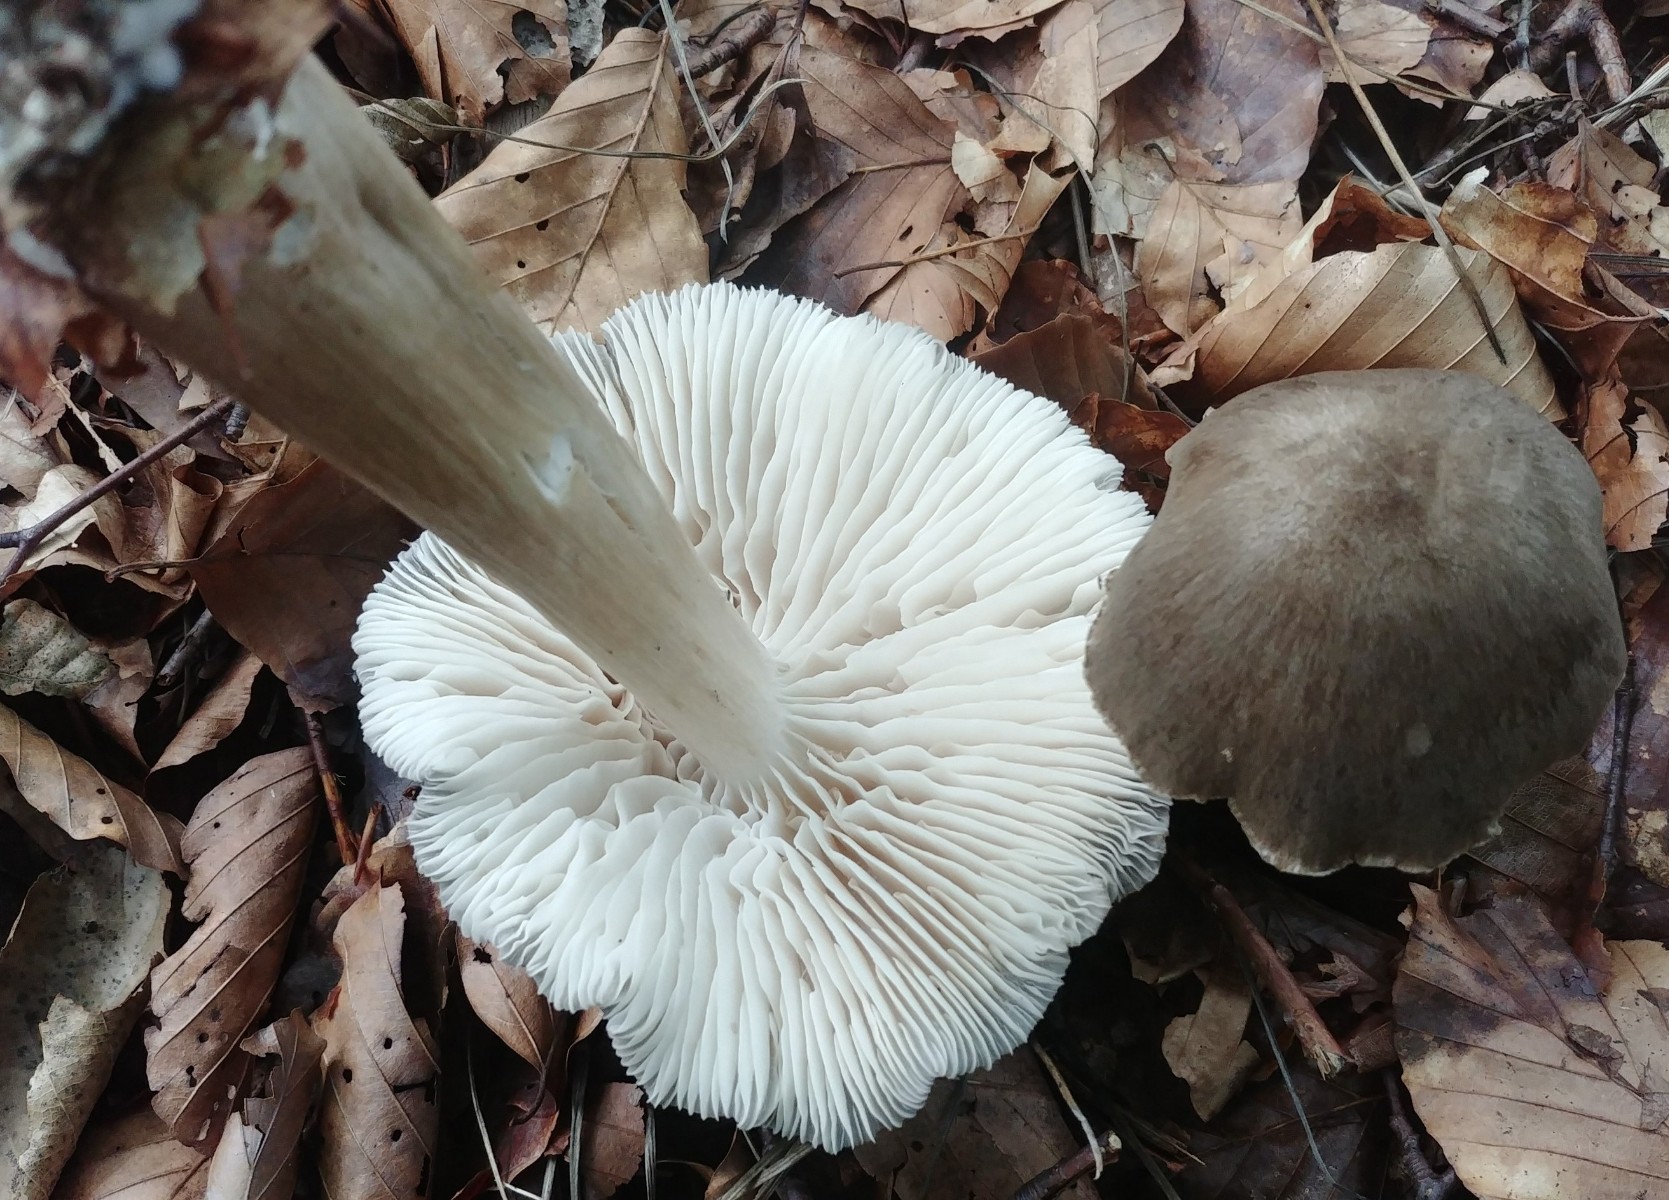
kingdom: Fungi
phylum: Basidiomycota
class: Agaricomycetes
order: Agaricales
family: Tricholomataceae
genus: Megacollybia
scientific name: Megacollybia platyphylla
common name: bredbladet væbnerhat
